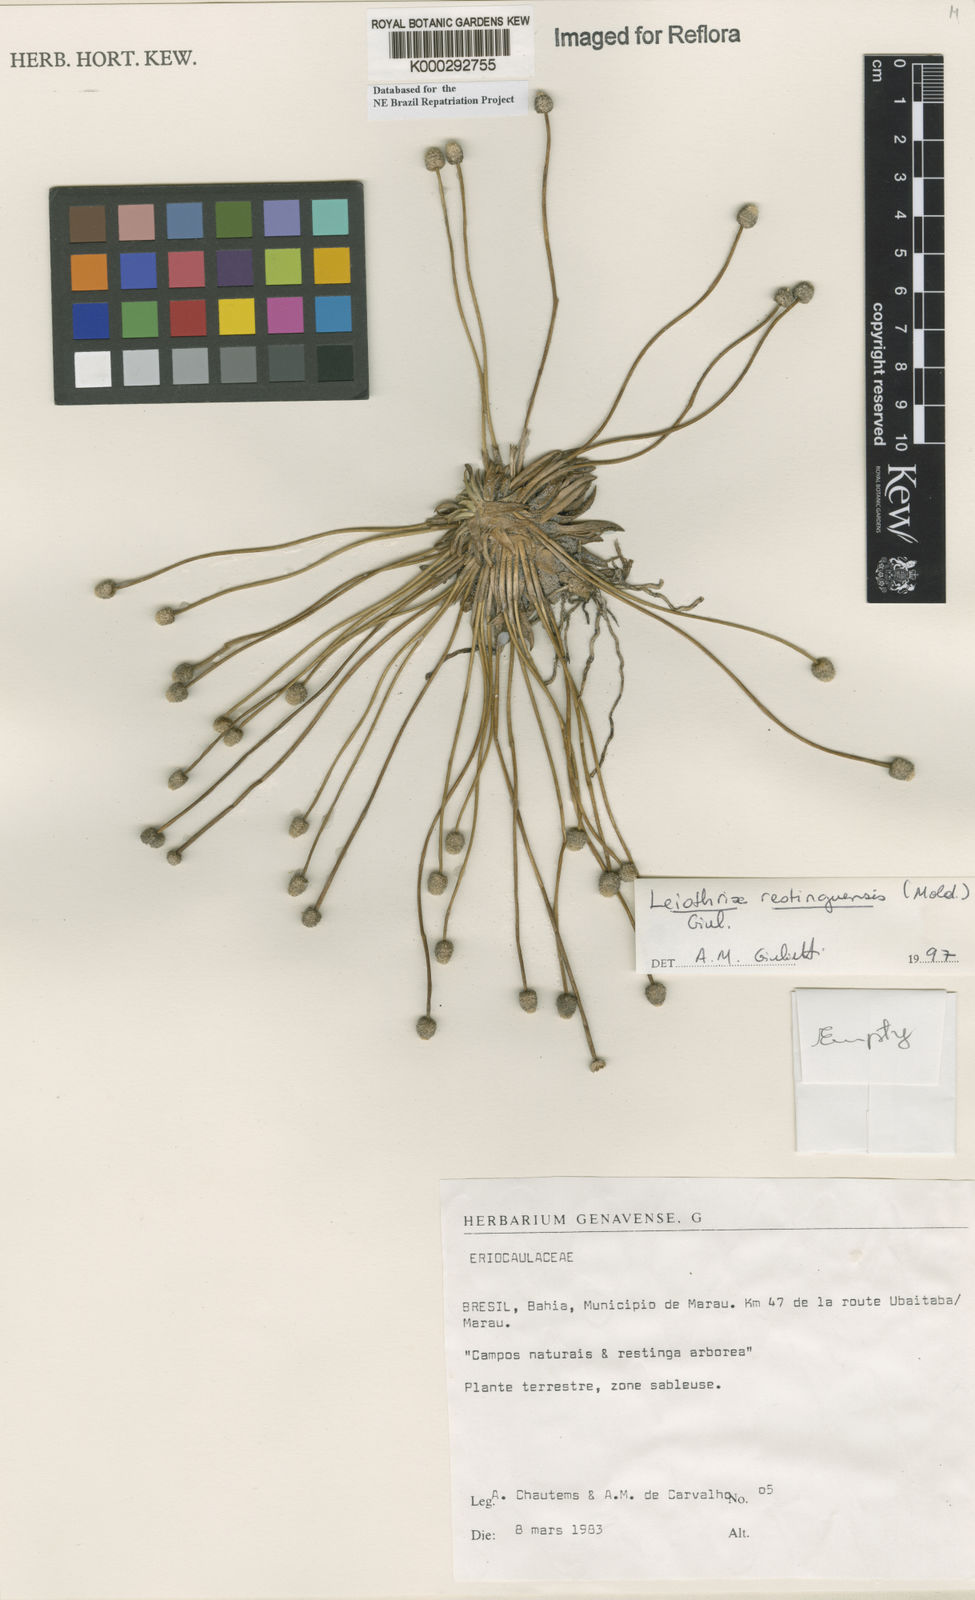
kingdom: Plantae
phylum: Tracheophyta
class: Liliopsida
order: Poales
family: Eriocaulaceae
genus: Leiothrix
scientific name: Leiothrix
